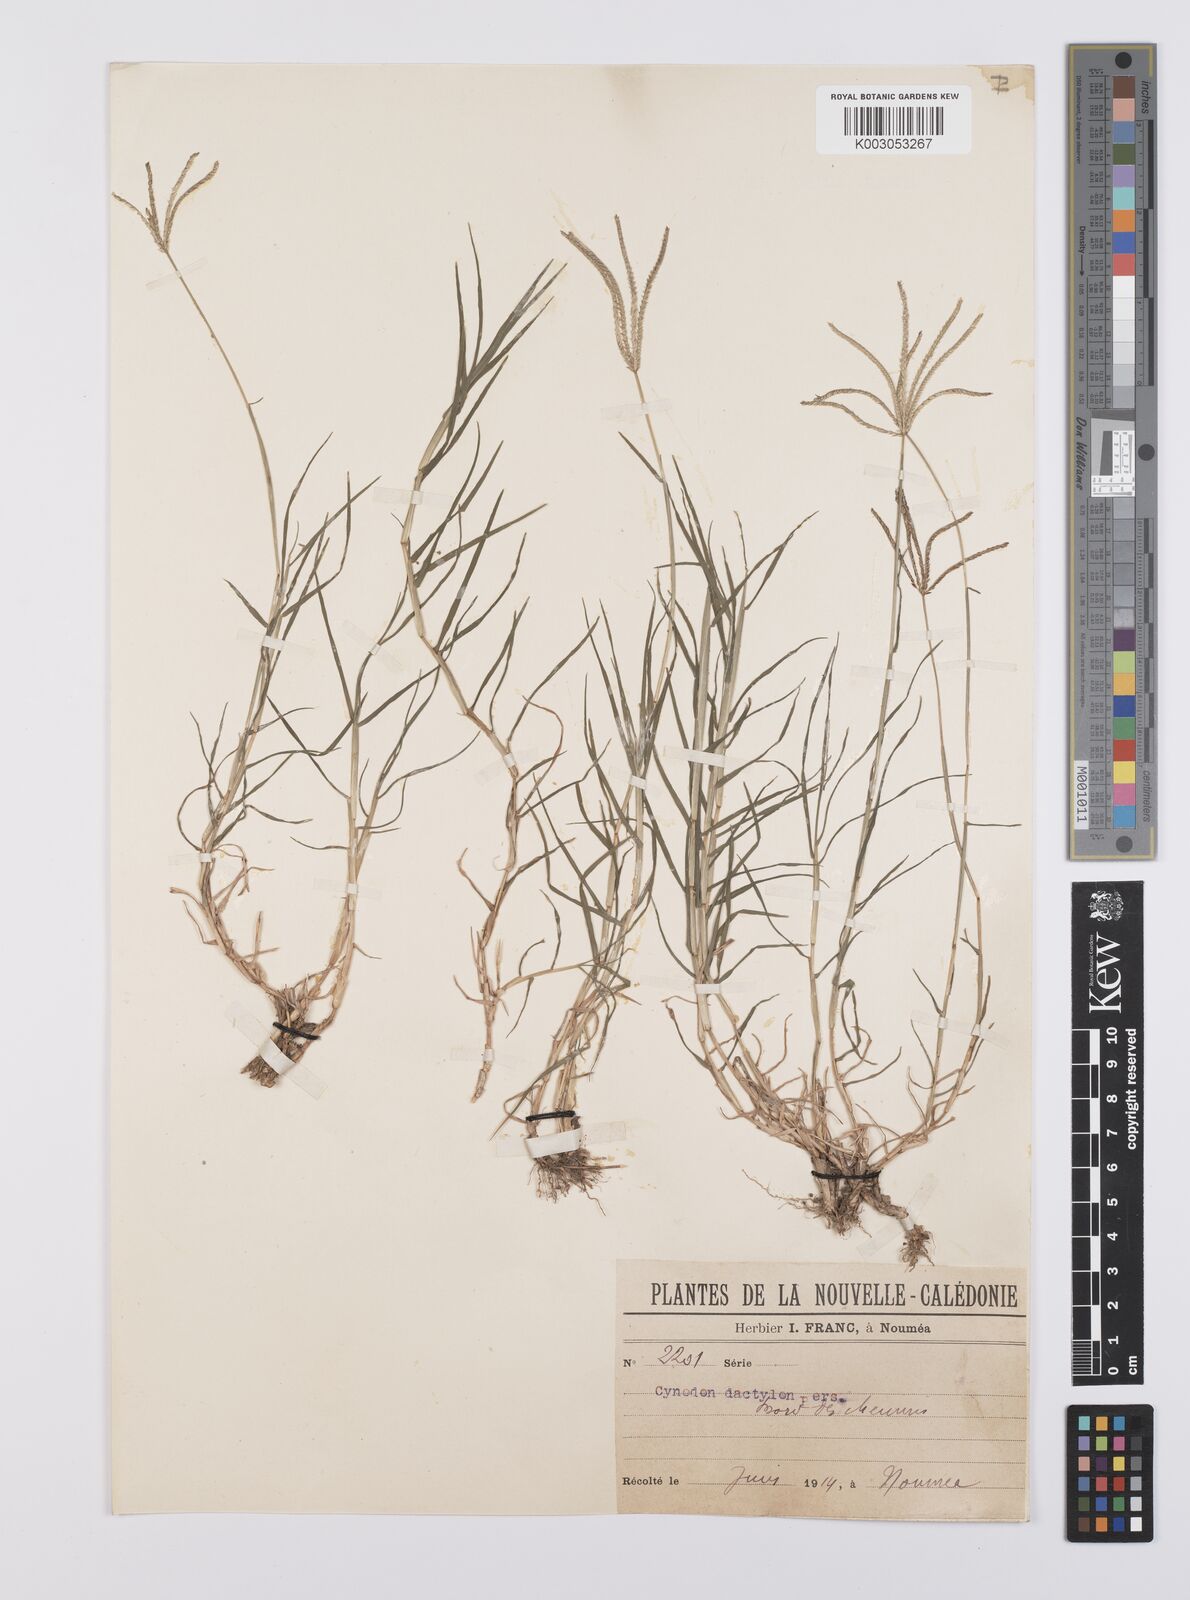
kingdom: Plantae
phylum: Tracheophyta
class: Liliopsida
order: Poales
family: Poaceae
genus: Cynodon
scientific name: Cynodon dactylon
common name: Bermuda grass
